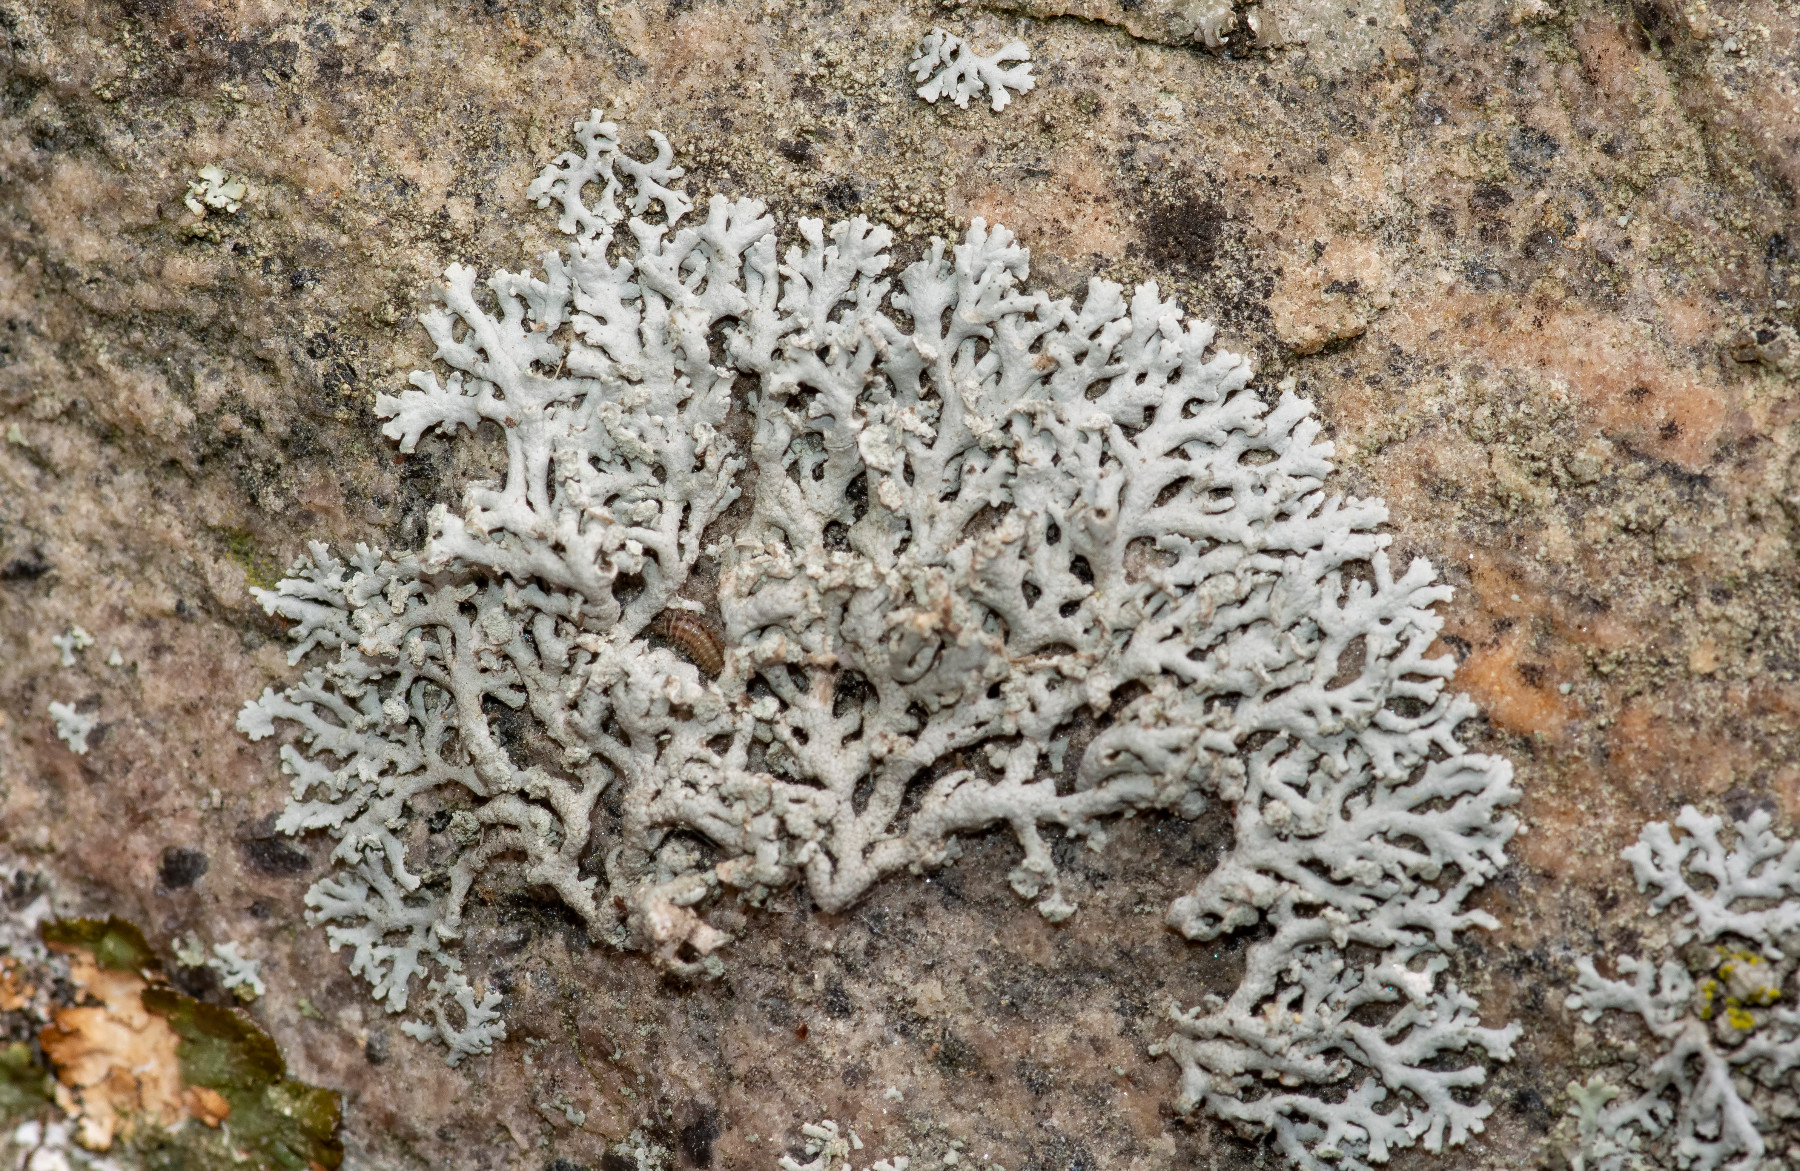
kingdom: Fungi
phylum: Ascomycota
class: Lecanoromycetes
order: Caliciales
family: Physciaceae
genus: Physcia
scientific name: Physcia dubia
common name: fuglestens-rosetlav
